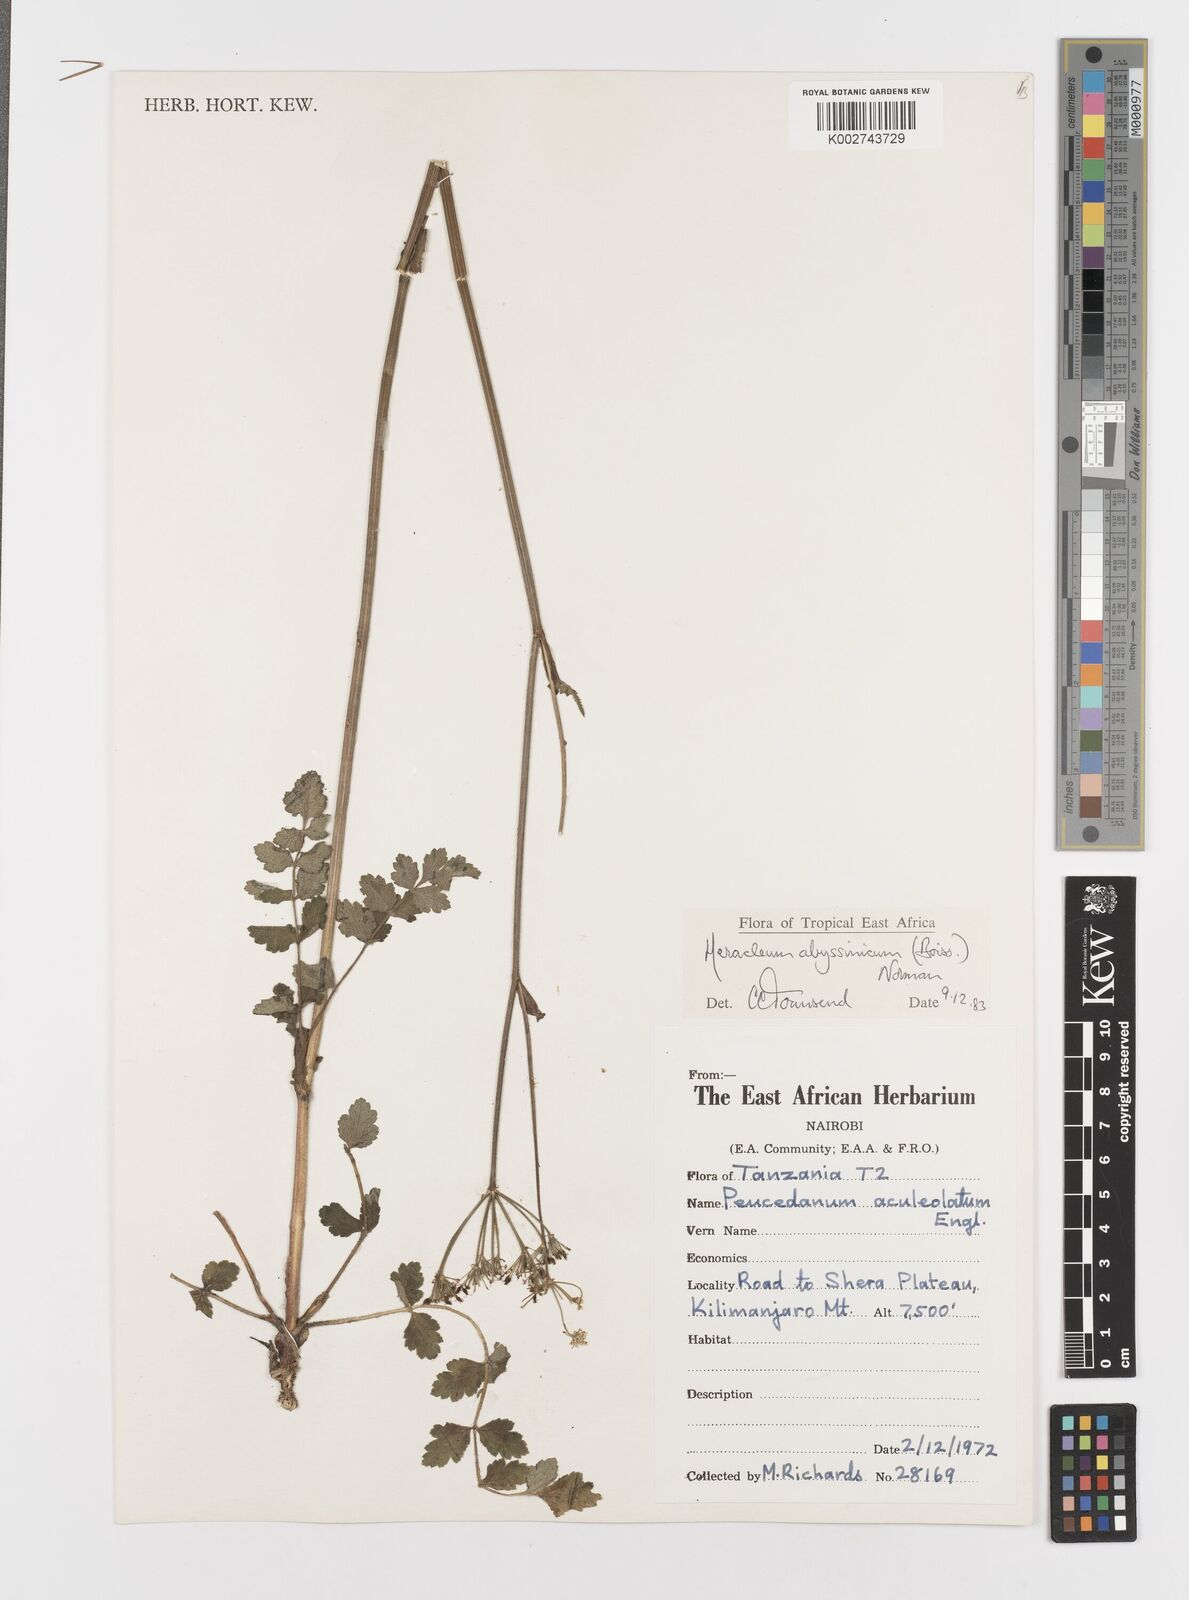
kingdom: Plantae
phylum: Tracheophyta
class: Magnoliopsida
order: Apiales
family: Apiaceae
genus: Heracleum
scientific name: Heracleum abyssinicum
